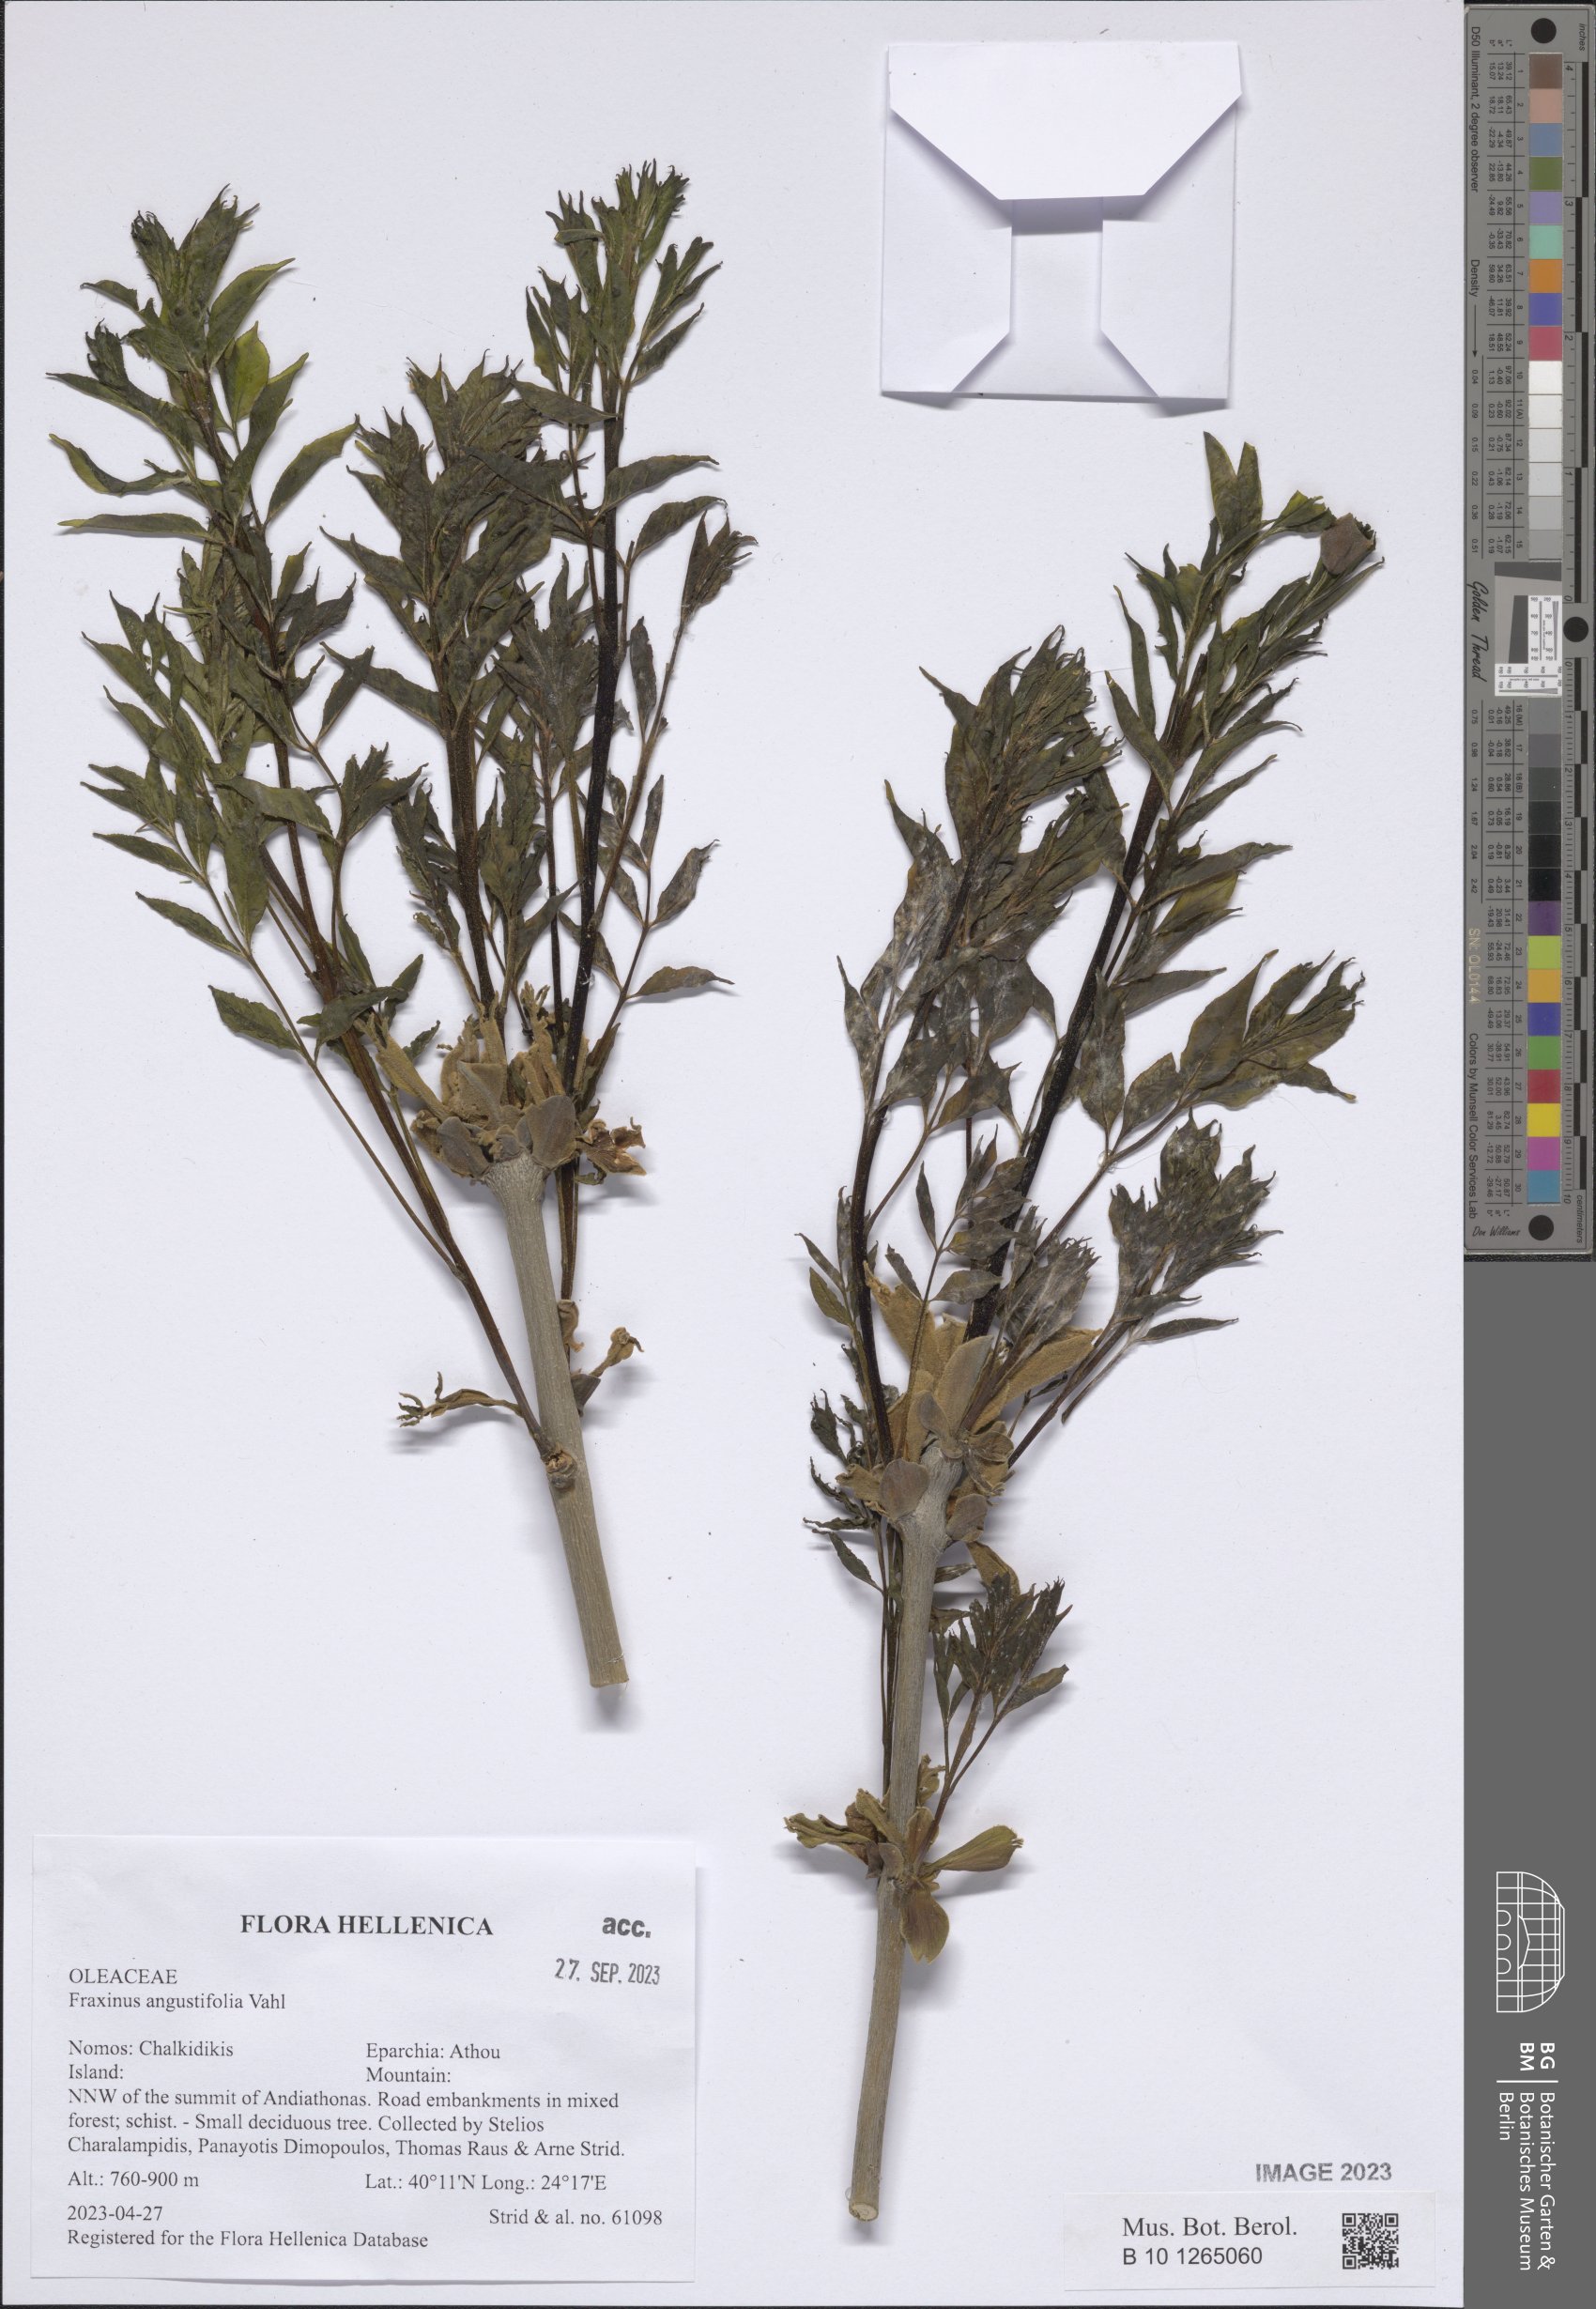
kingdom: Plantae
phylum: Tracheophyta
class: Magnoliopsida
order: Lamiales
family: Oleaceae
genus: Fraxinus
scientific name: Fraxinus angustifolia
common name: Narrow-leafed ash
